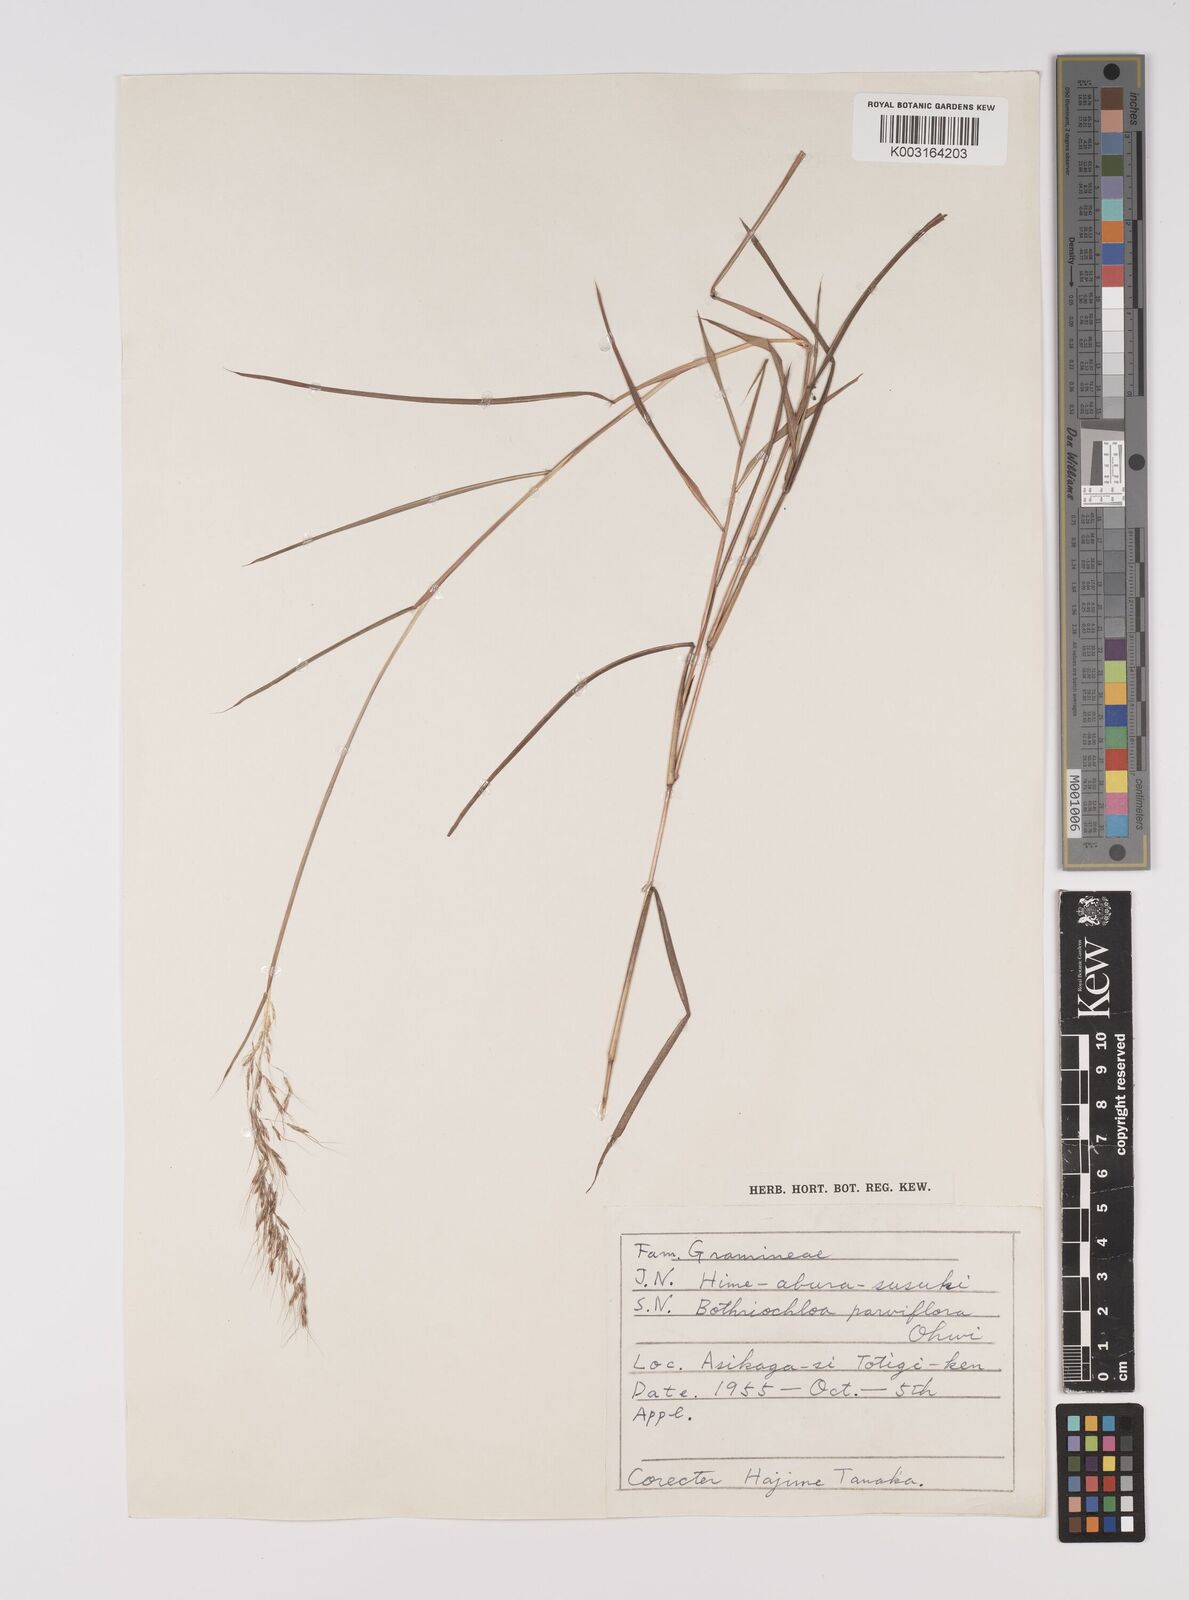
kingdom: Plantae
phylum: Tracheophyta
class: Liliopsida
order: Poales
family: Poaceae
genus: Capillipedium
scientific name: Capillipedium parviflorum
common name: Golden-beard
